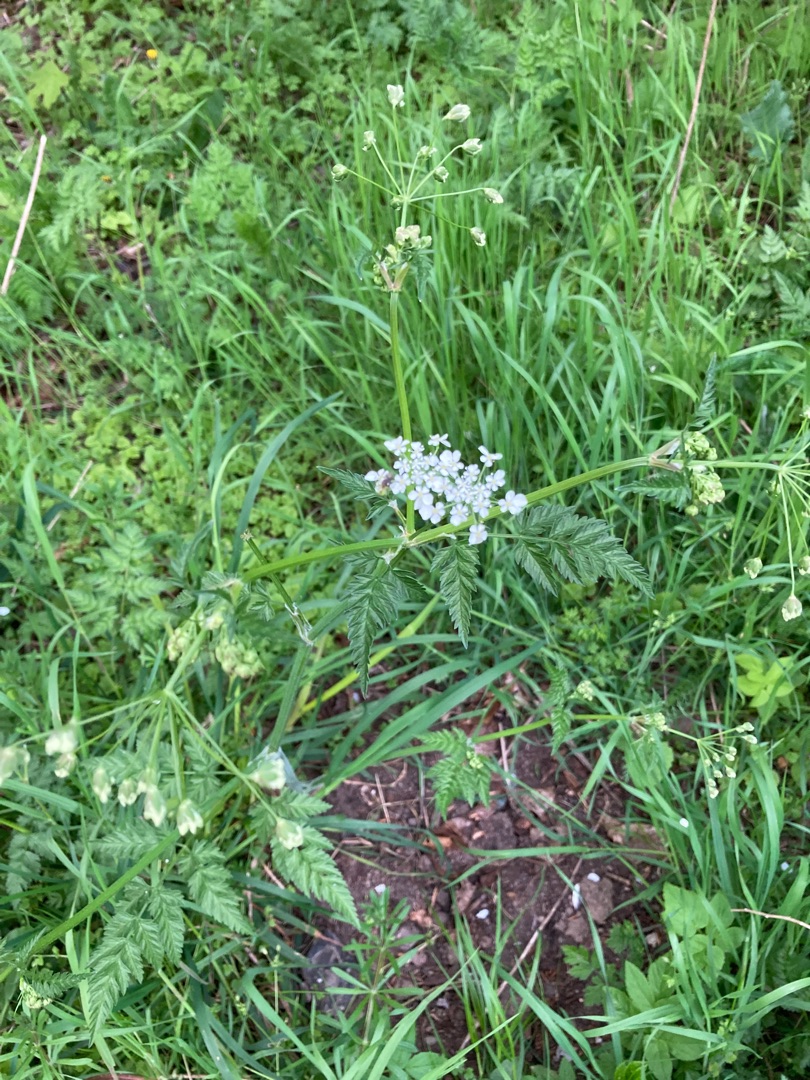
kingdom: Plantae
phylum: Tracheophyta
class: Magnoliopsida
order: Apiales
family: Apiaceae
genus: Anthriscus
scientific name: Anthriscus sylvestris
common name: Vild kørvel
